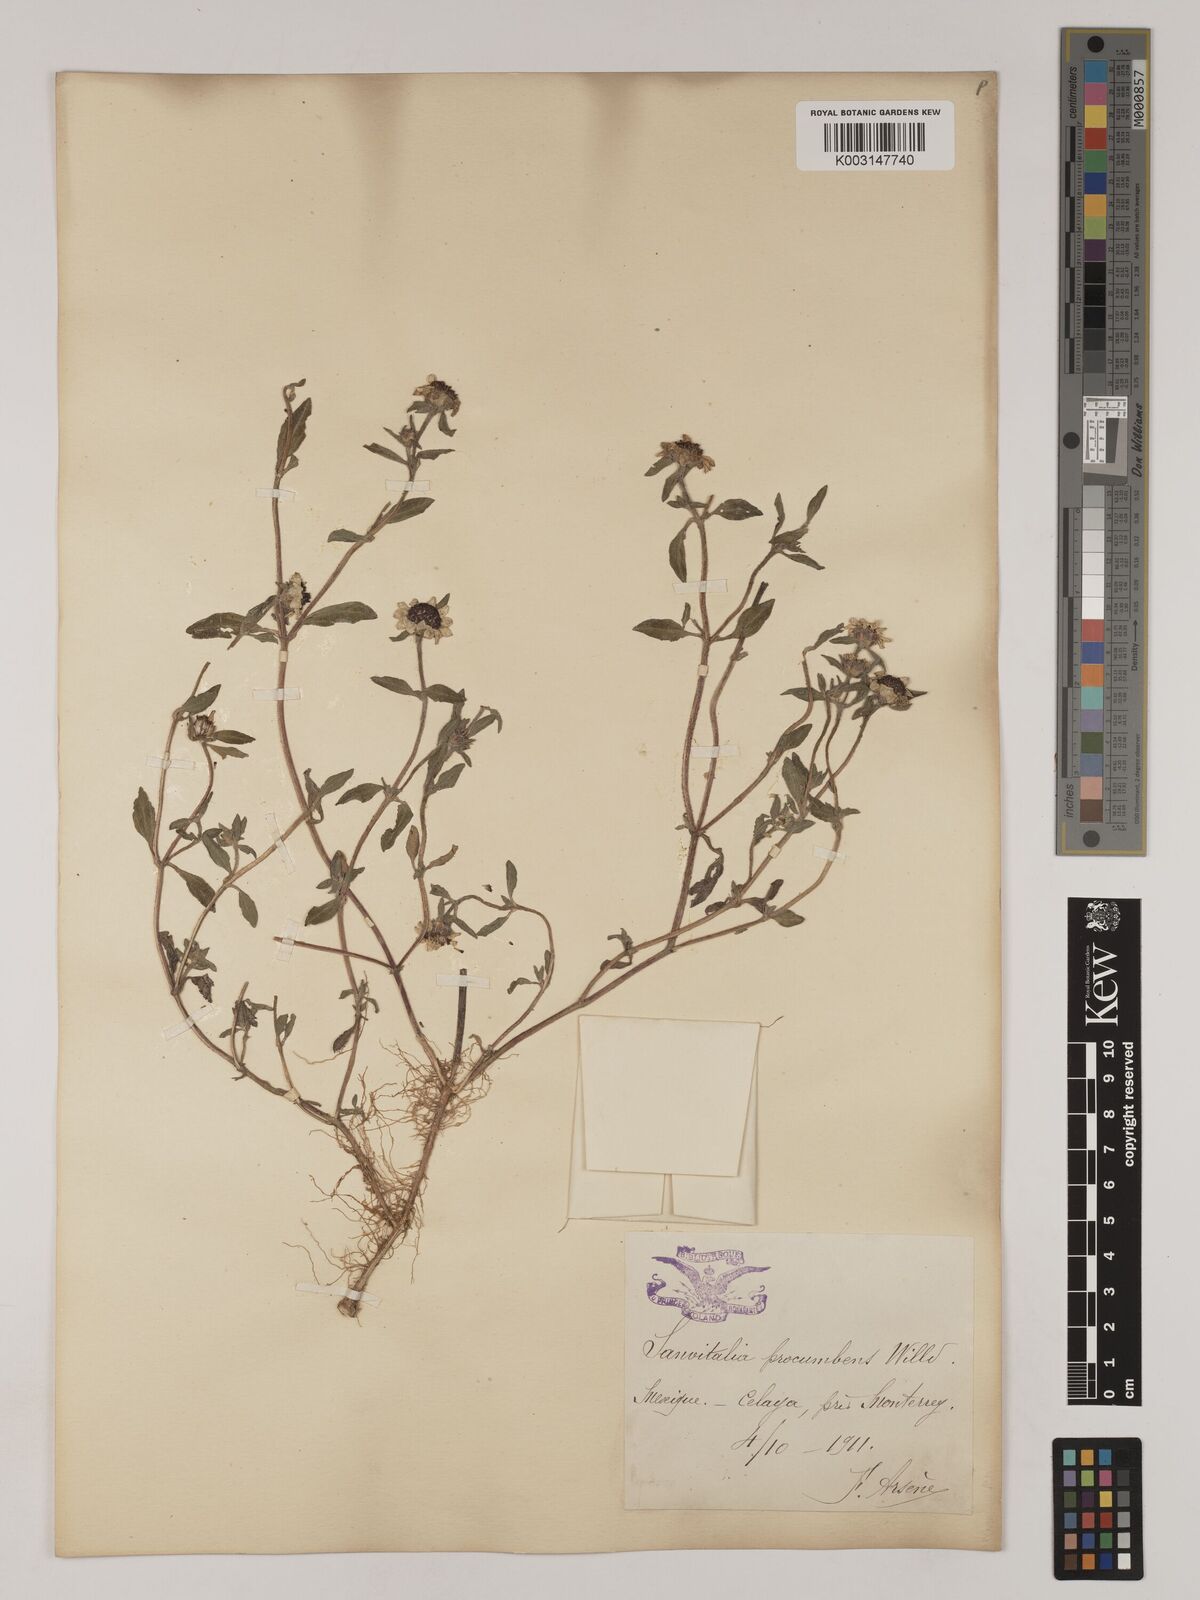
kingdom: Plantae
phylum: Tracheophyta
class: Magnoliopsida
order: Asterales
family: Asteraceae
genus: Sanvitalia
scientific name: Sanvitalia procumbens
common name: Mexican creeping zinnia
